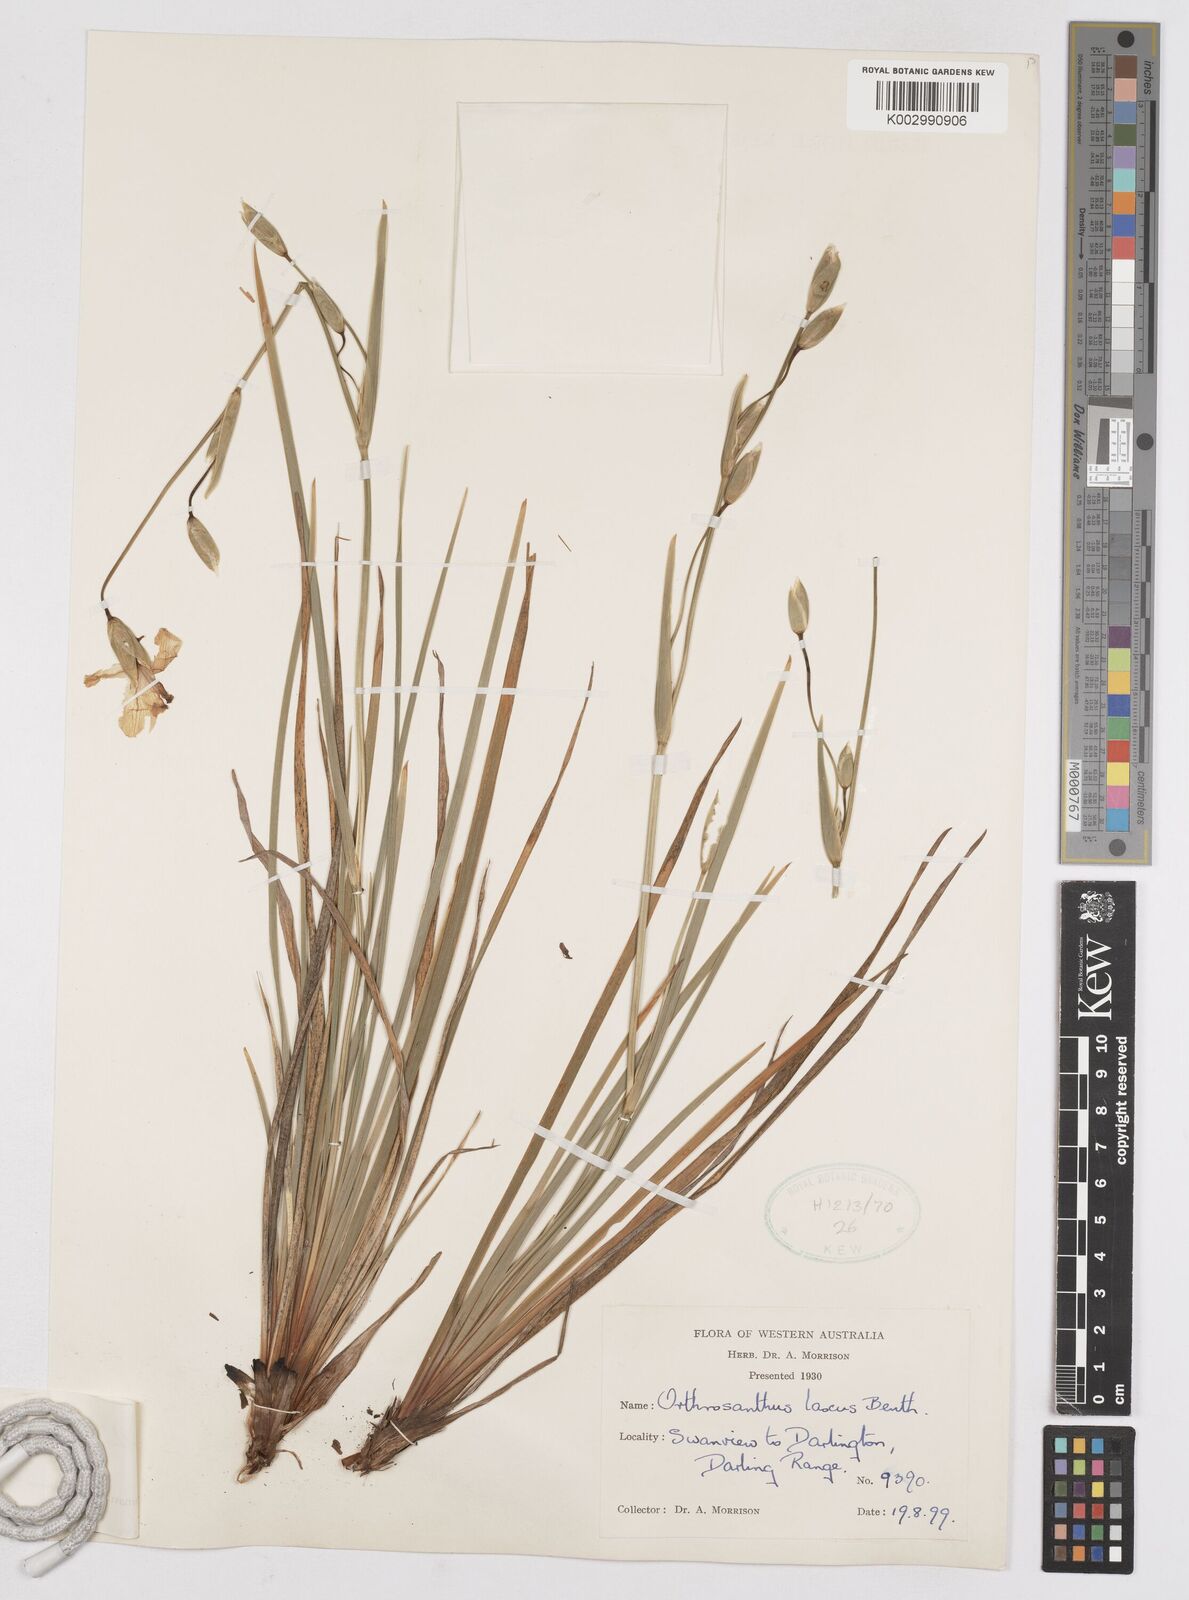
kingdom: Plantae
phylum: Tracheophyta
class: Liliopsida
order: Asparagales
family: Iridaceae
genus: Orthrosanthus
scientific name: Orthrosanthus laxus
